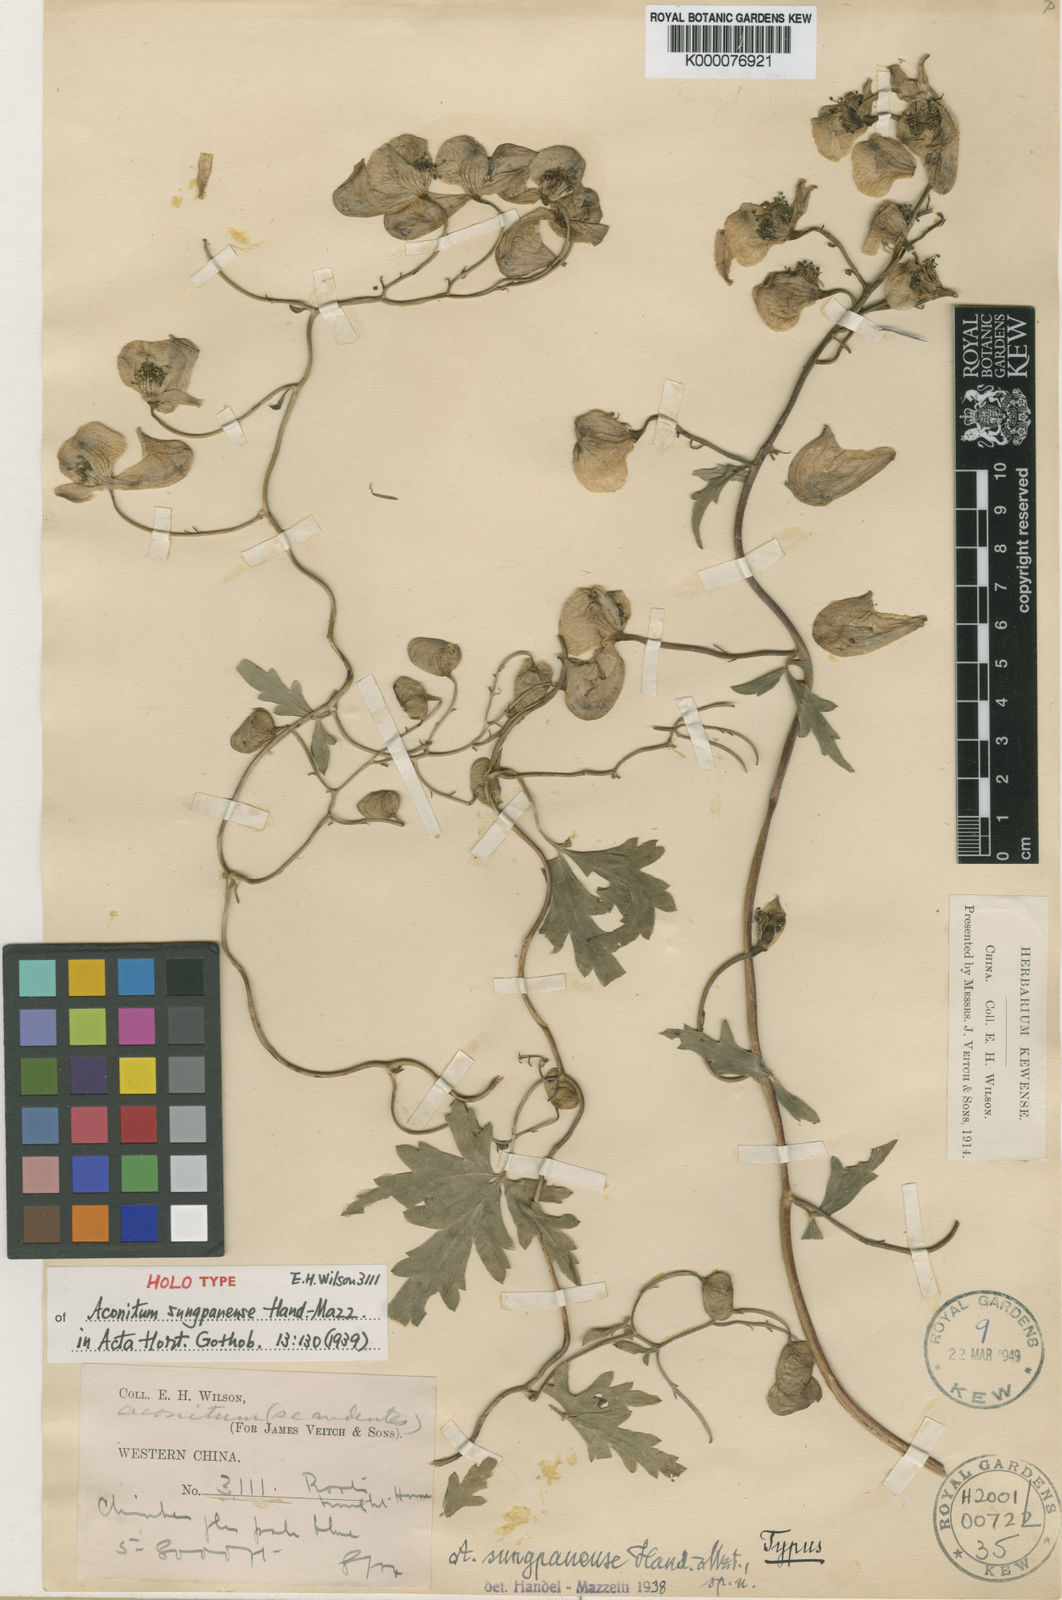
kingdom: Plantae
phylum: Tracheophyta
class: Magnoliopsida
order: Ranunculales
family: Ranunculaceae
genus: Aconitum
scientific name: Aconitum henryi
